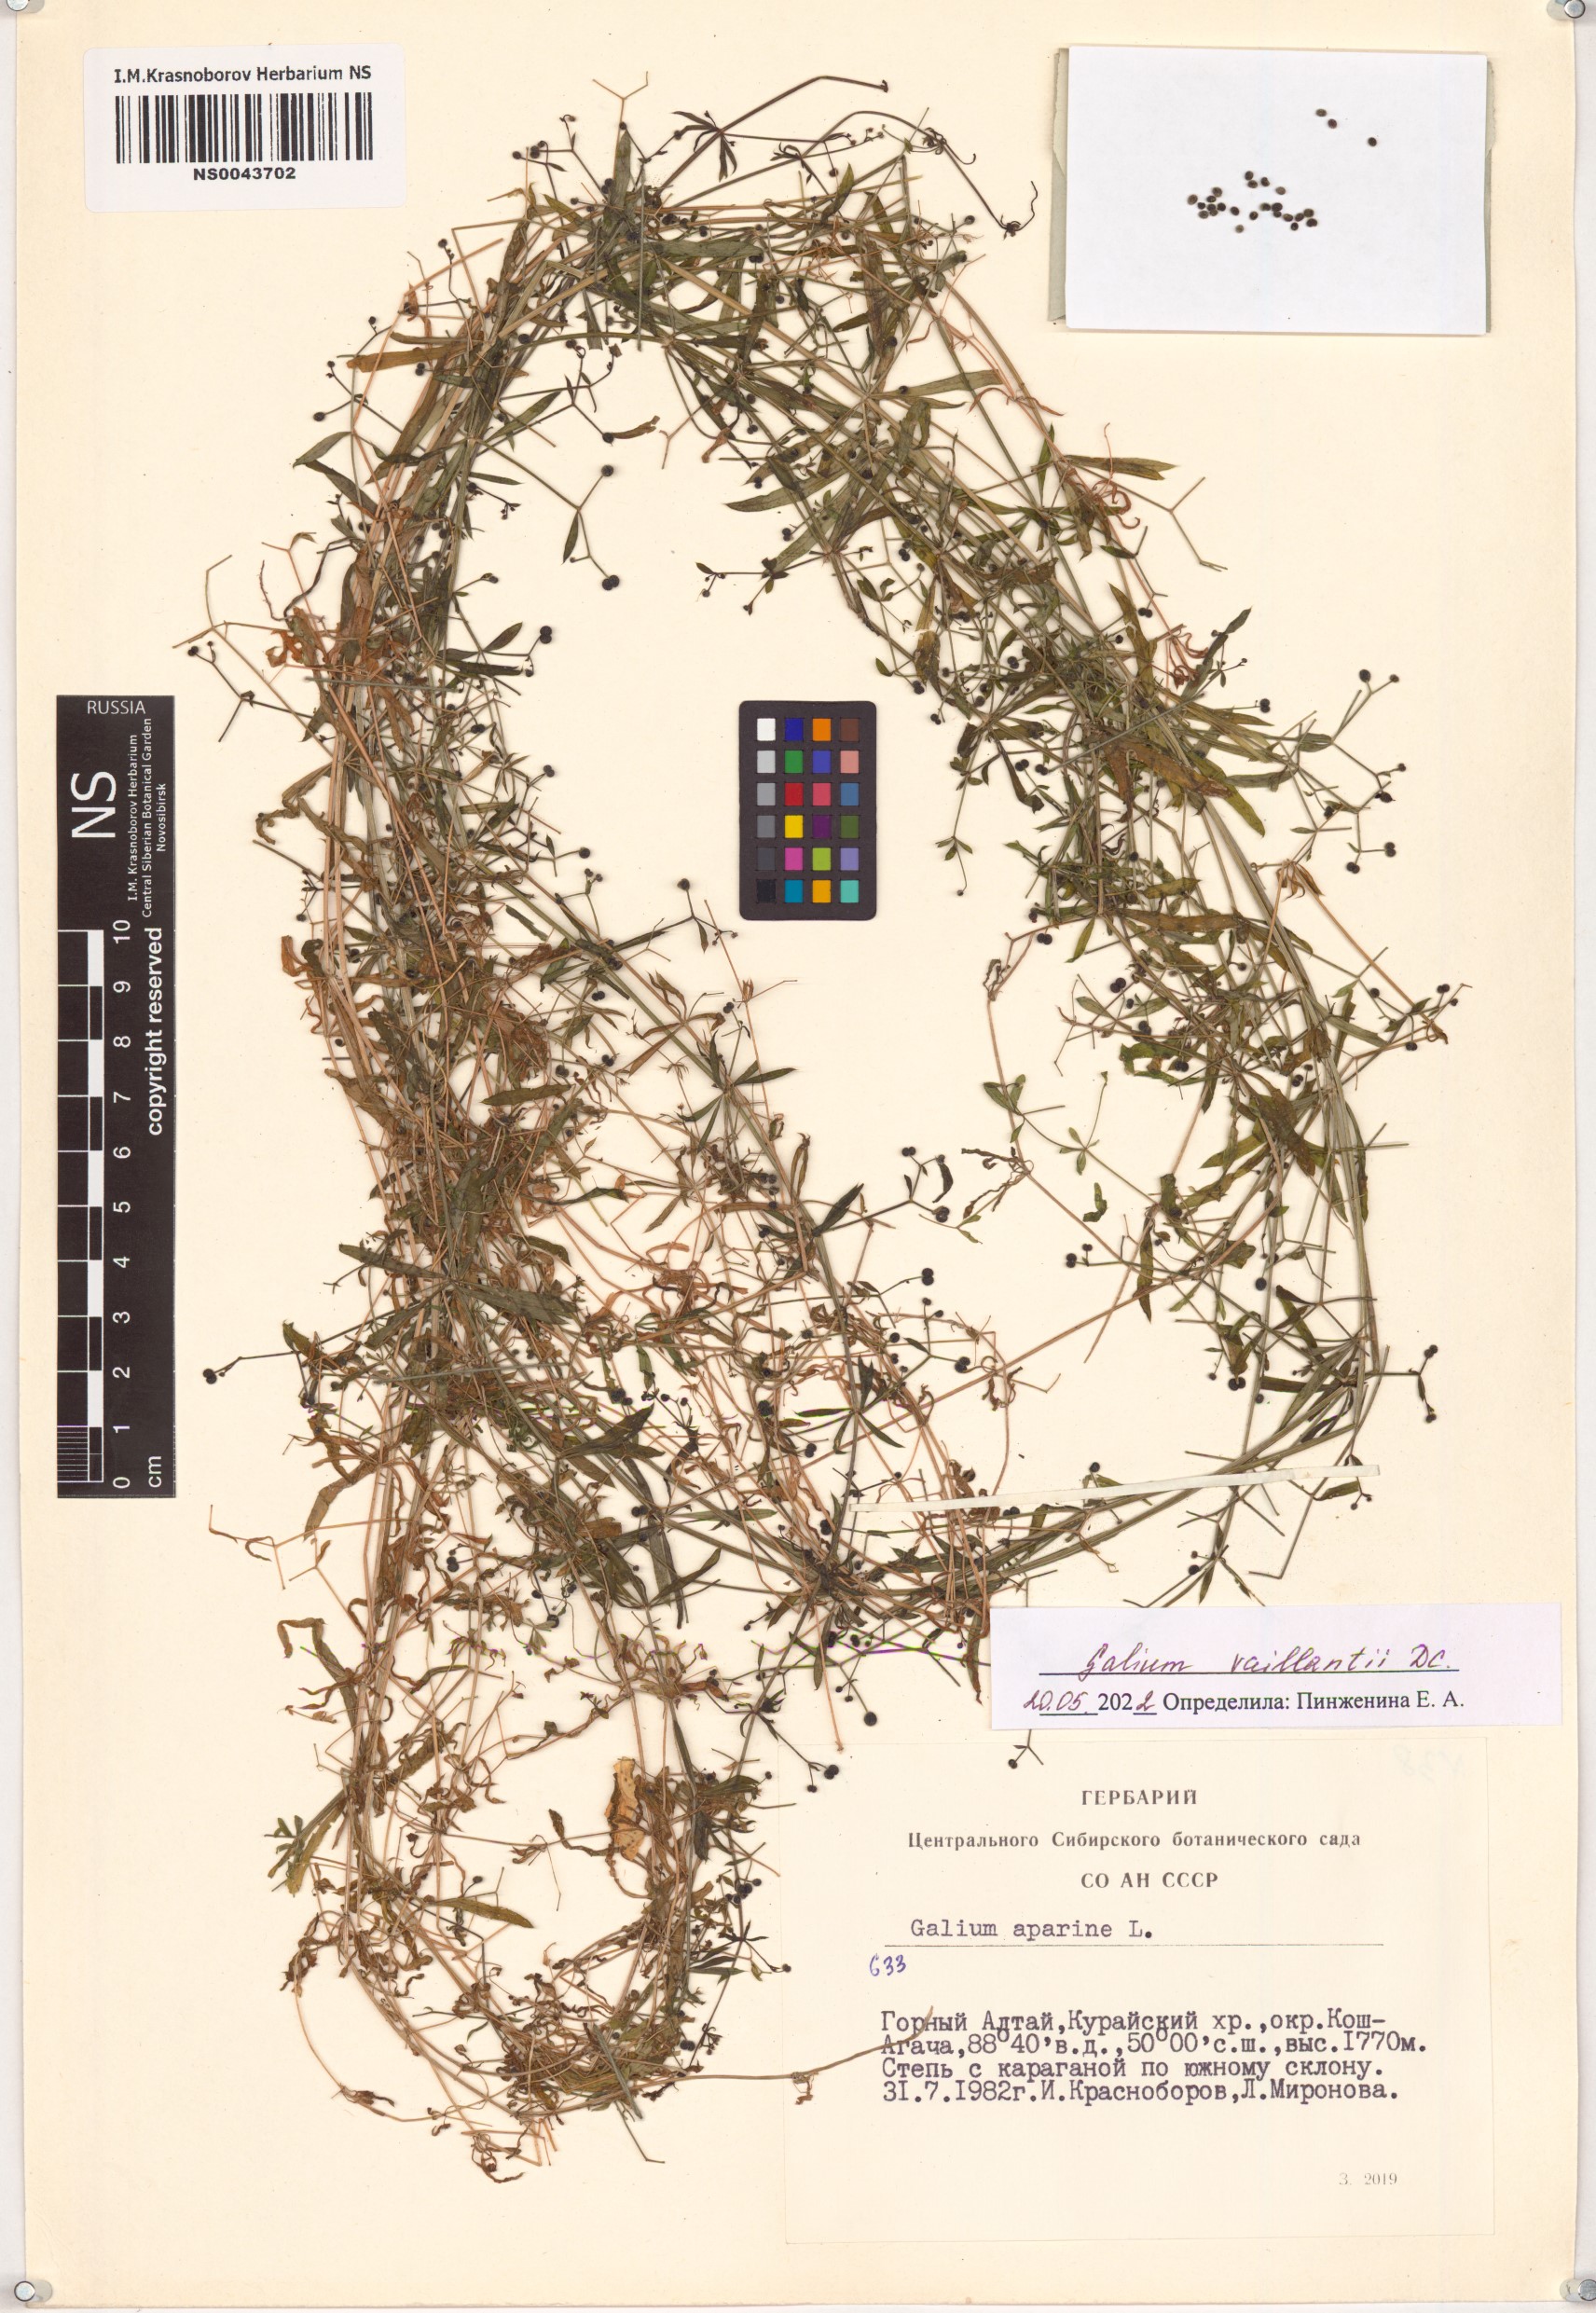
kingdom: Plantae
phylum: Tracheophyta
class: Magnoliopsida
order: Gentianales
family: Rubiaceae
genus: Galium
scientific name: Galium spurium
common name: False cleavers
